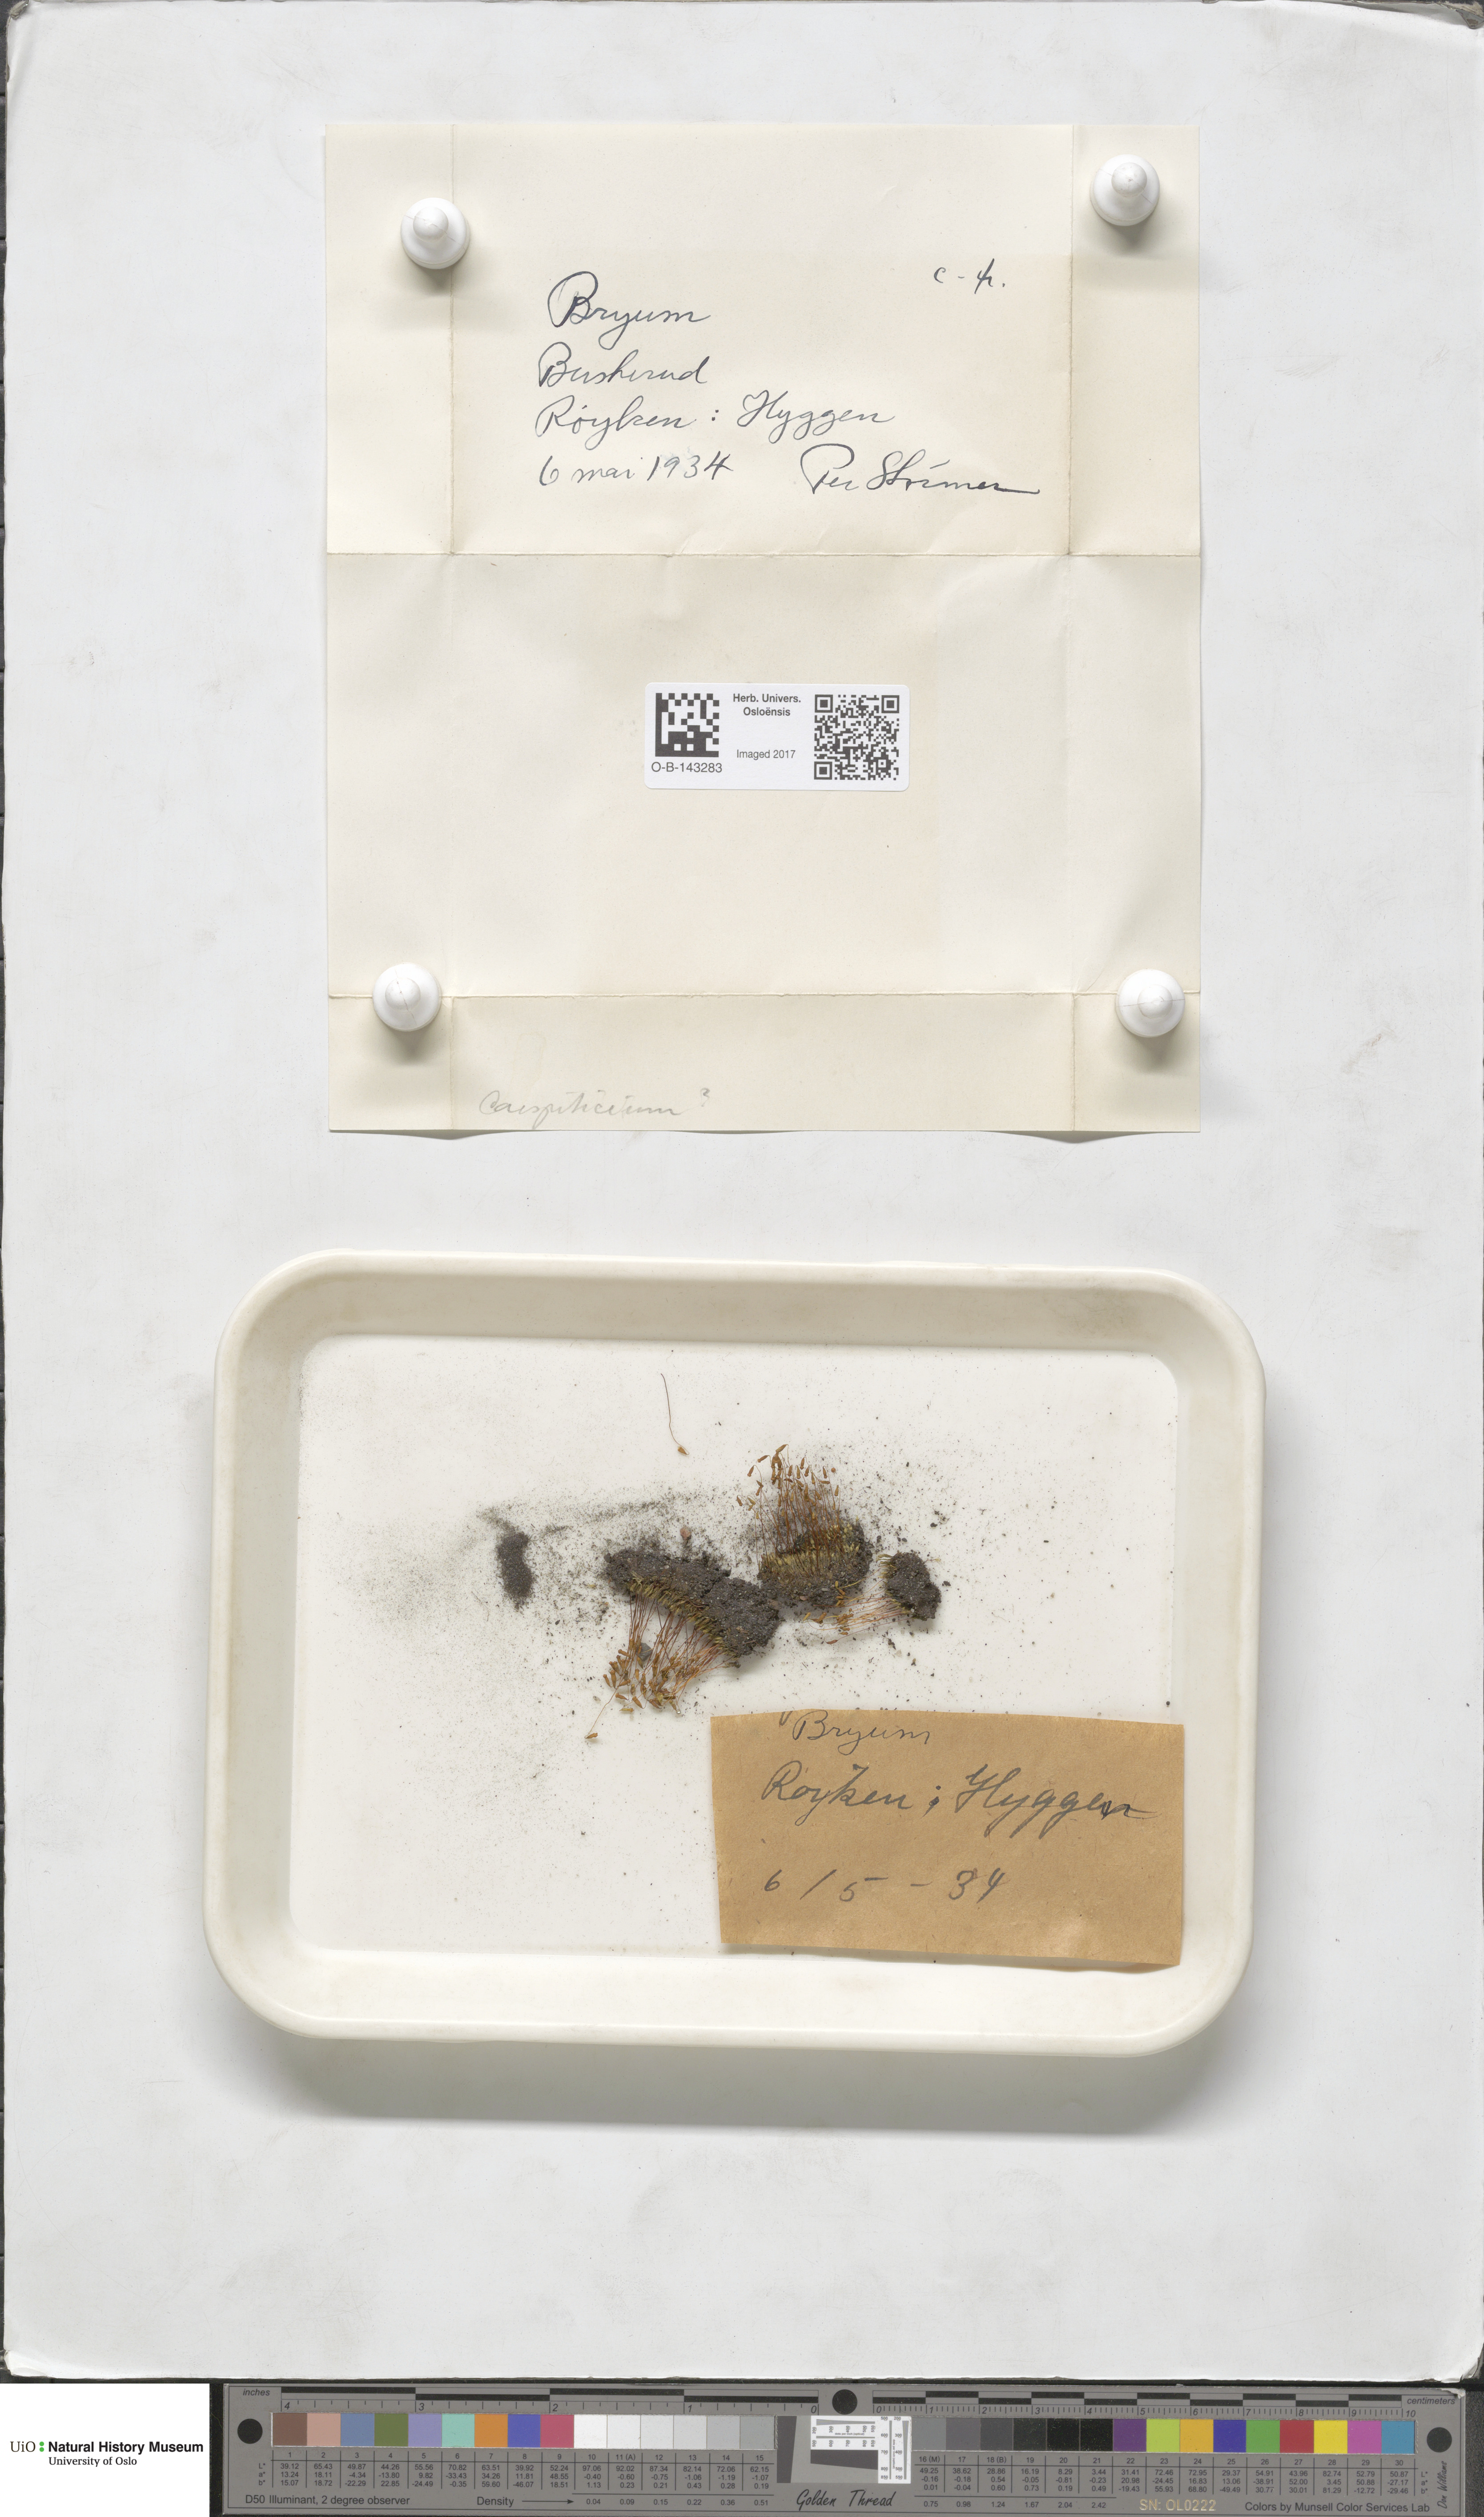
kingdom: Plantae
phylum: Bryophyta
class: Bryopsida
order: Bryales
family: Bryaceae
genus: Bryum
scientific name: Bryum
